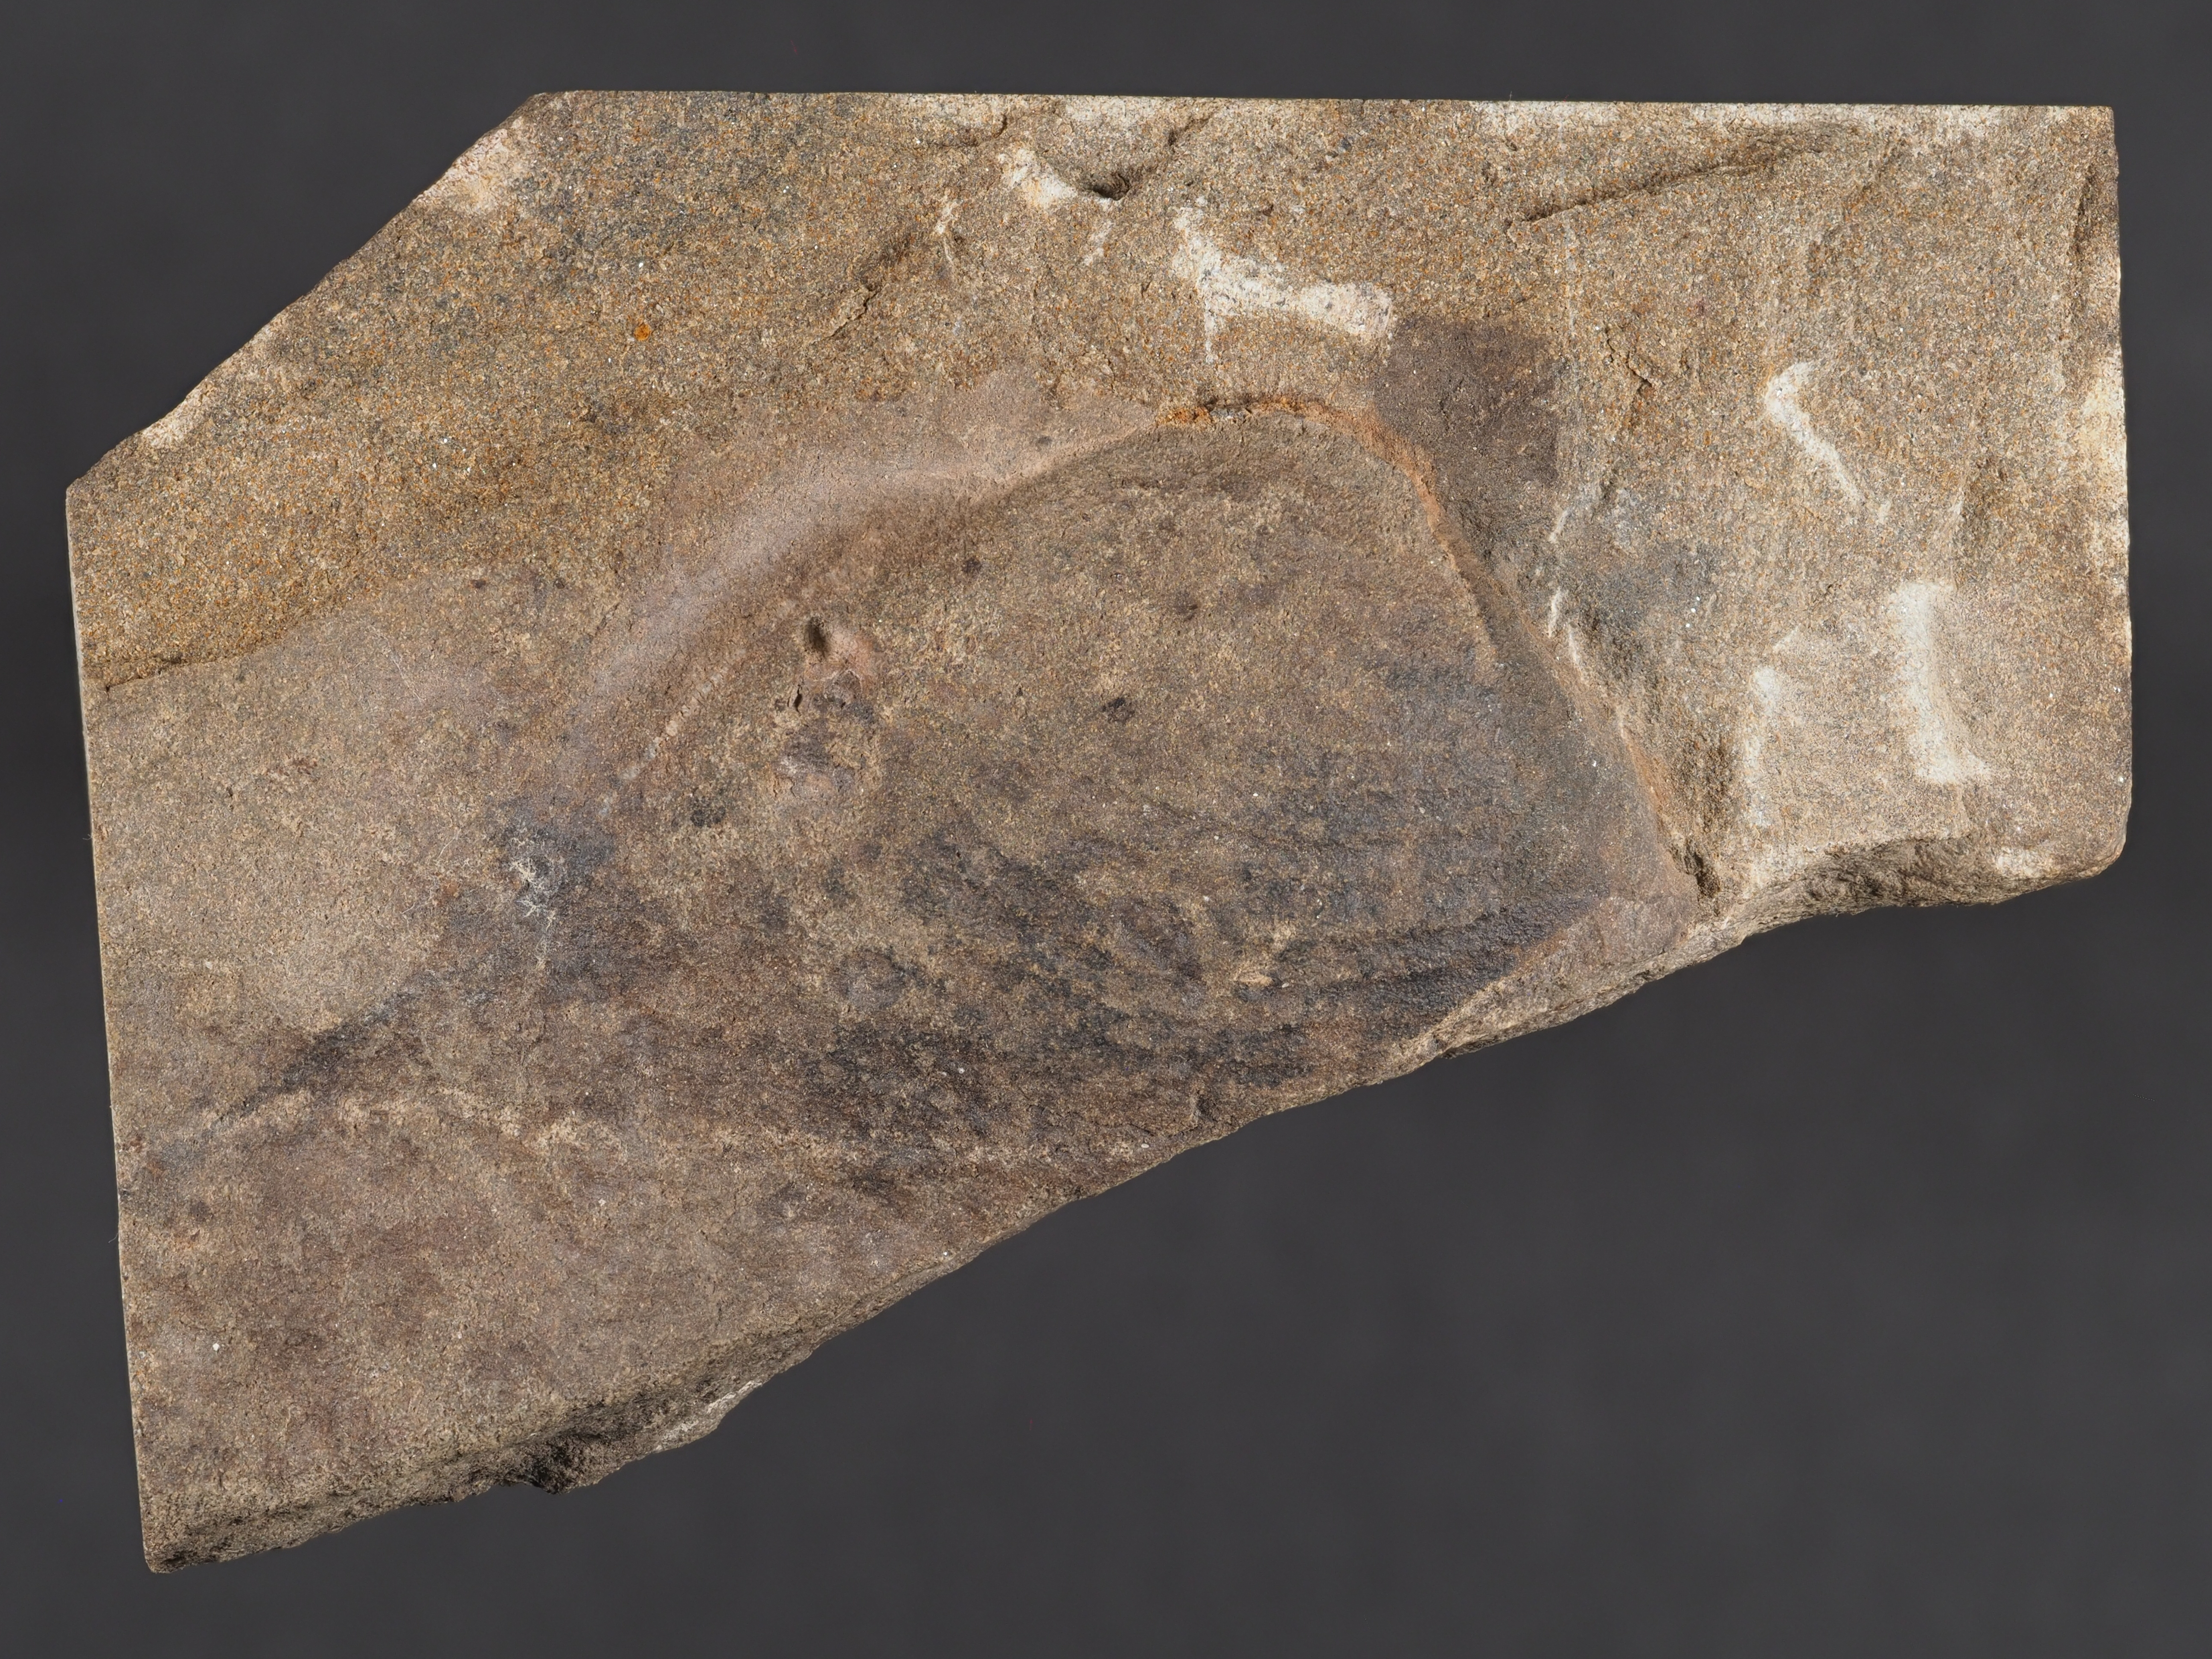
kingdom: Animalia
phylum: Mollusca
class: Bivalvia
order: Nuculanida
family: Malletiidae
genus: Palaeoneilo
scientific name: Palaeoneilo
